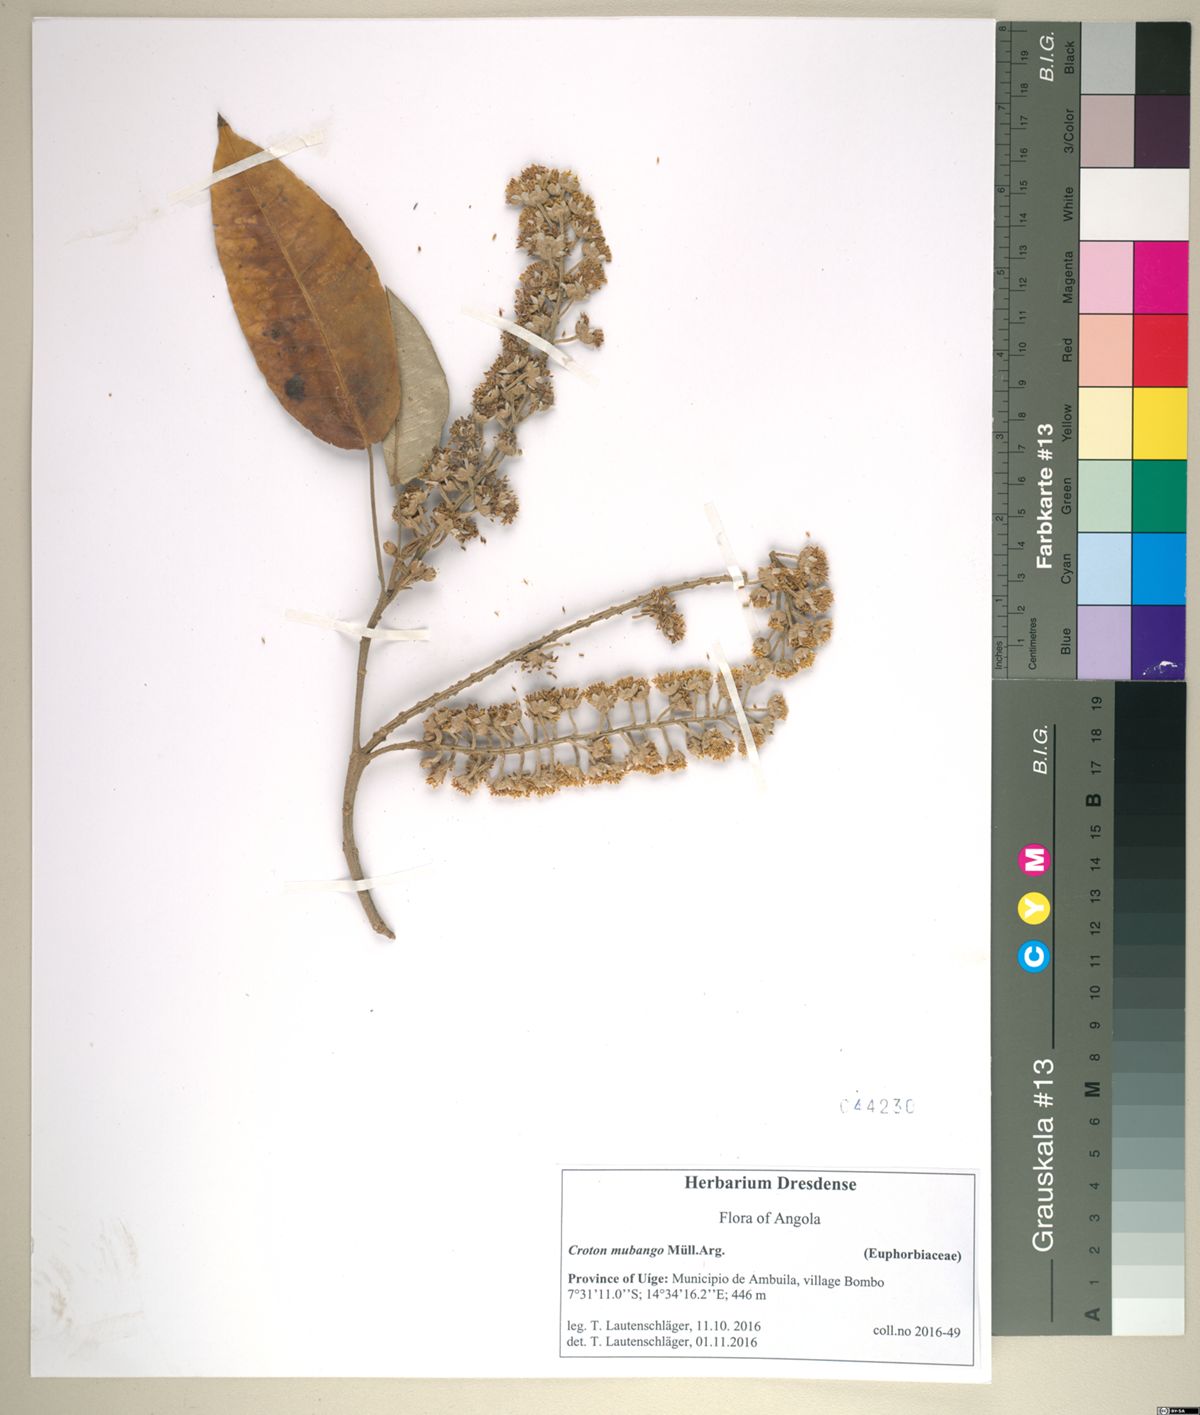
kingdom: Plantae
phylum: Tracheophyta
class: Magnoliopsida
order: Malpighiales
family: Euphorbiaceae
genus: Croton
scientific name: Croton mubango
